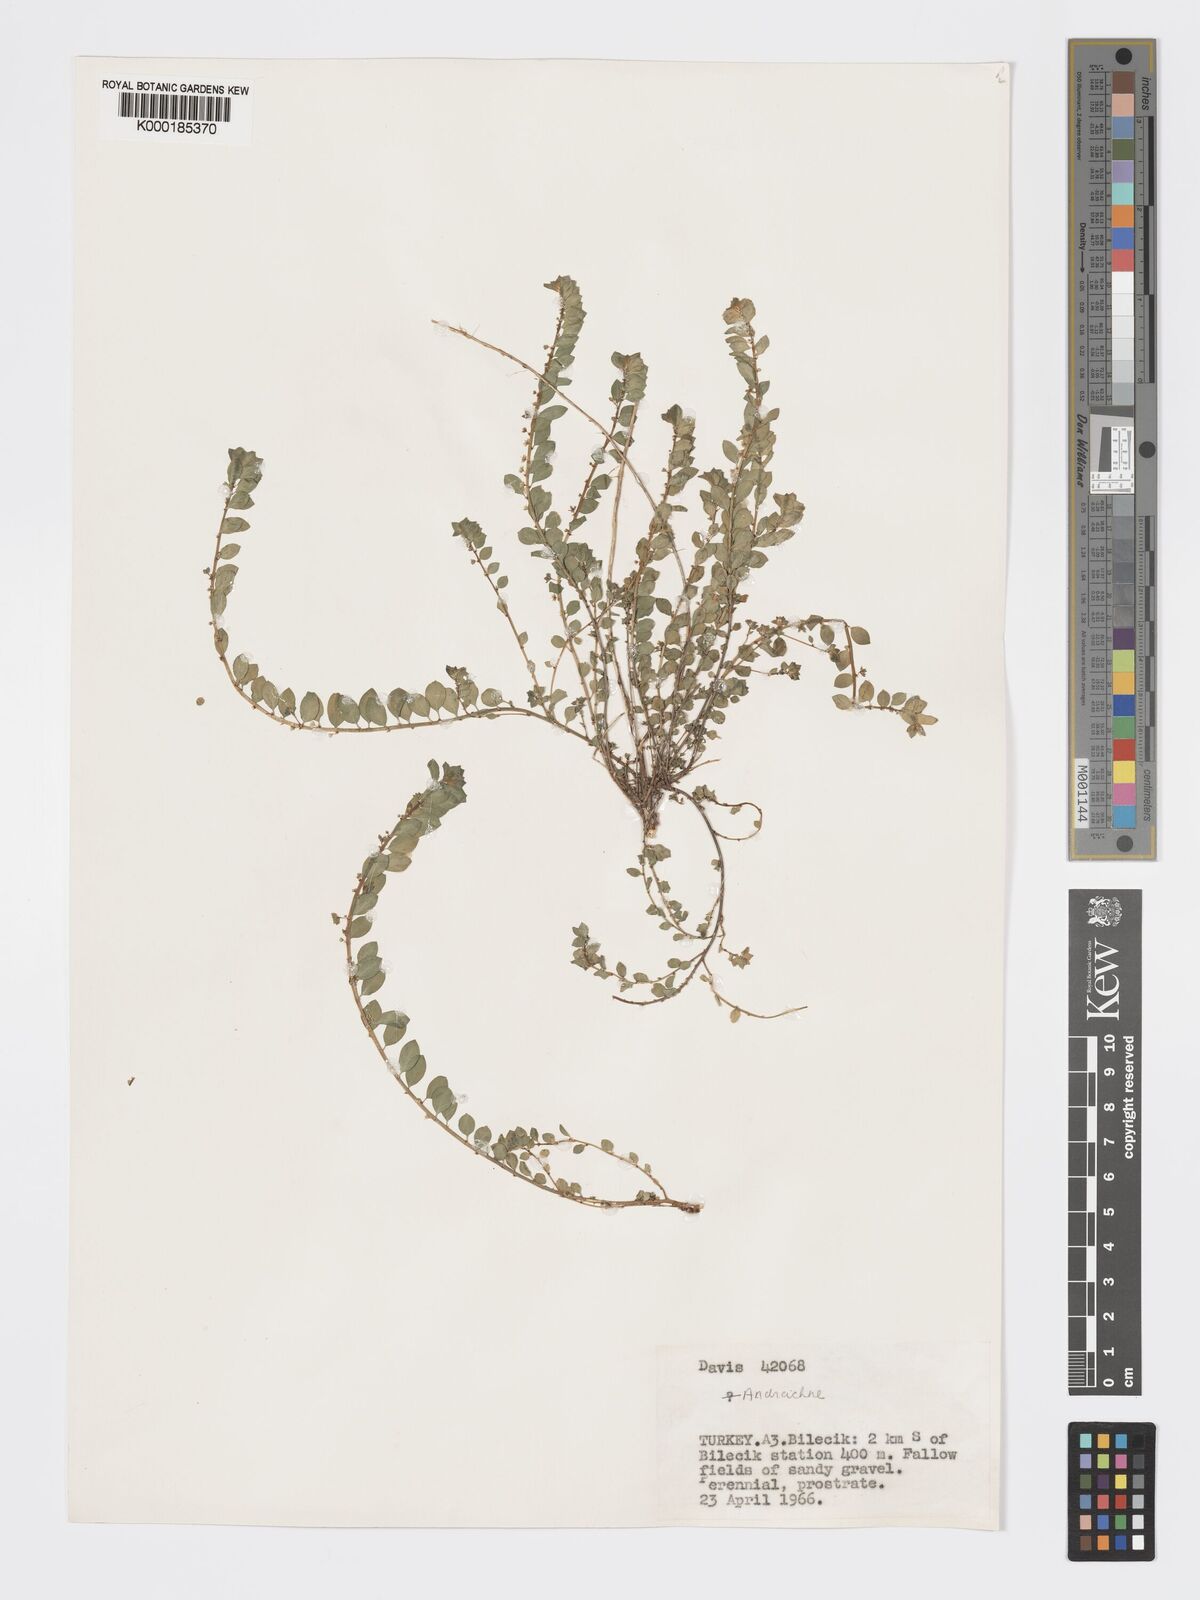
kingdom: Plantae
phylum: Tracheophyta
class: Magnoliopsida
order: Malpighiales
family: Phyllanthaceae
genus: Andrachne
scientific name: Andrachne telephioides
